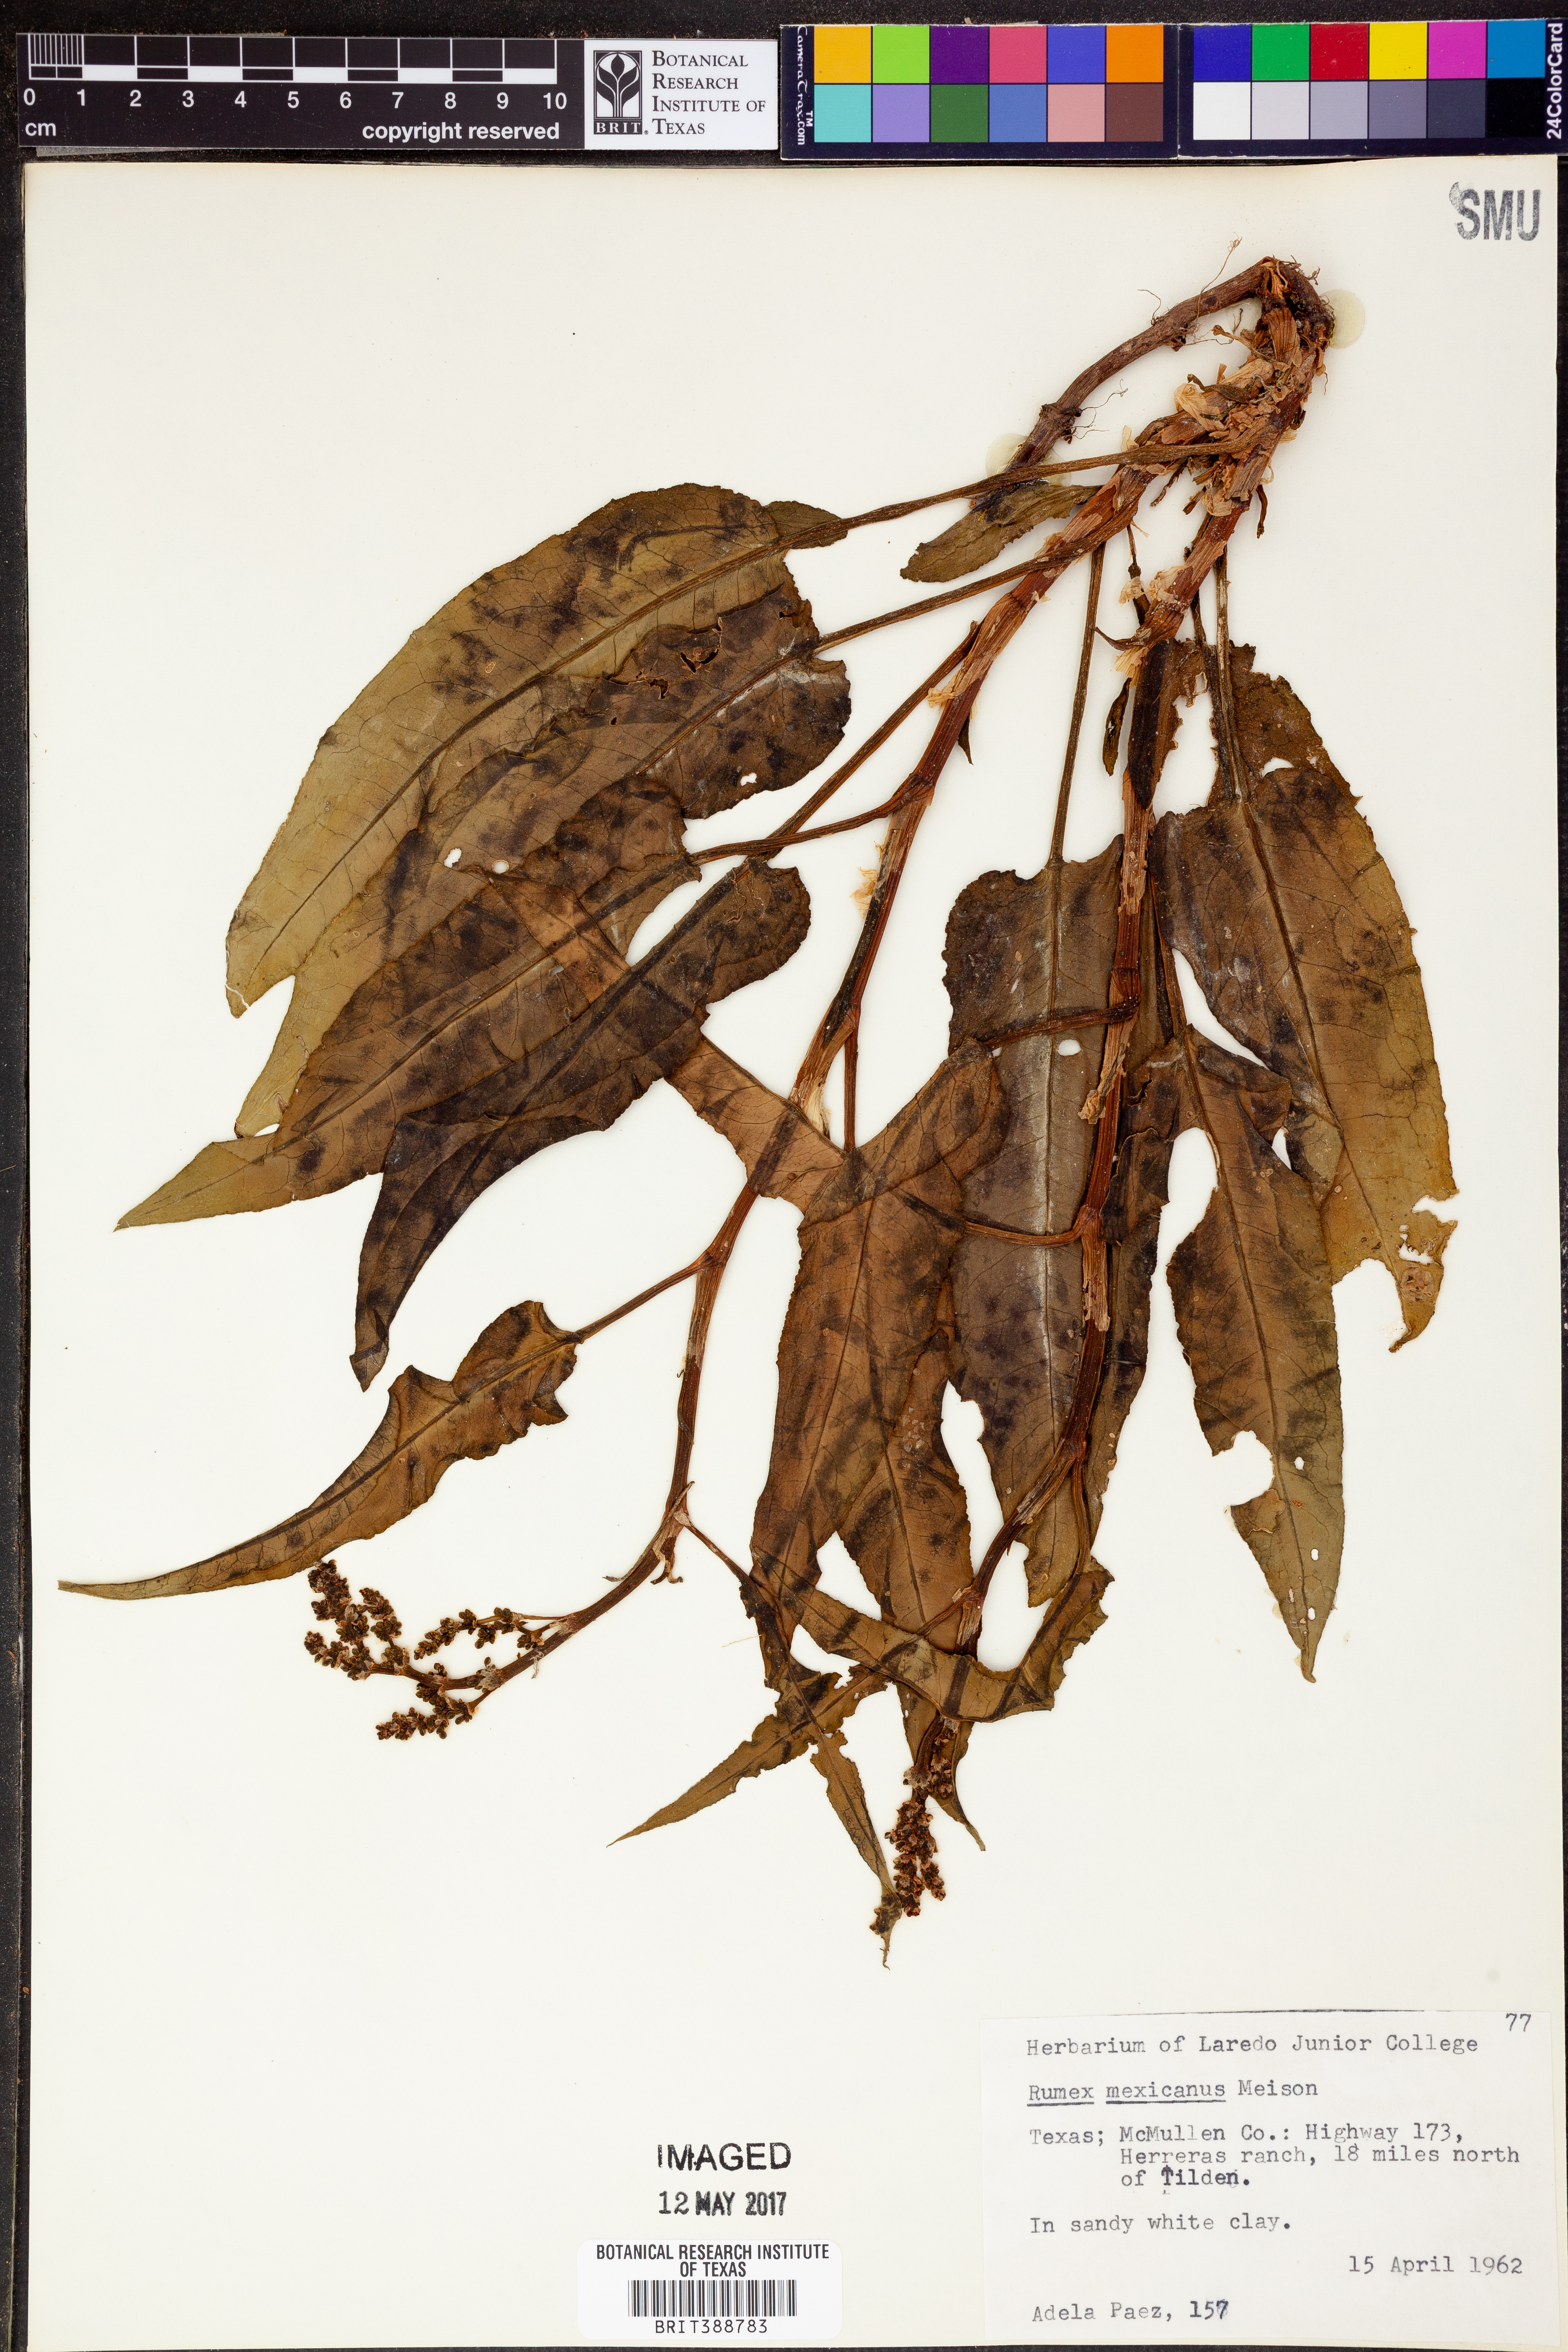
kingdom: Plantae
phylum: Tracheophyta
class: Magnoliopsida
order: Caryophyllales
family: Polygonaceae
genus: Rumex
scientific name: Rumex triangulivalvis
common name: Triangular-valve dock
